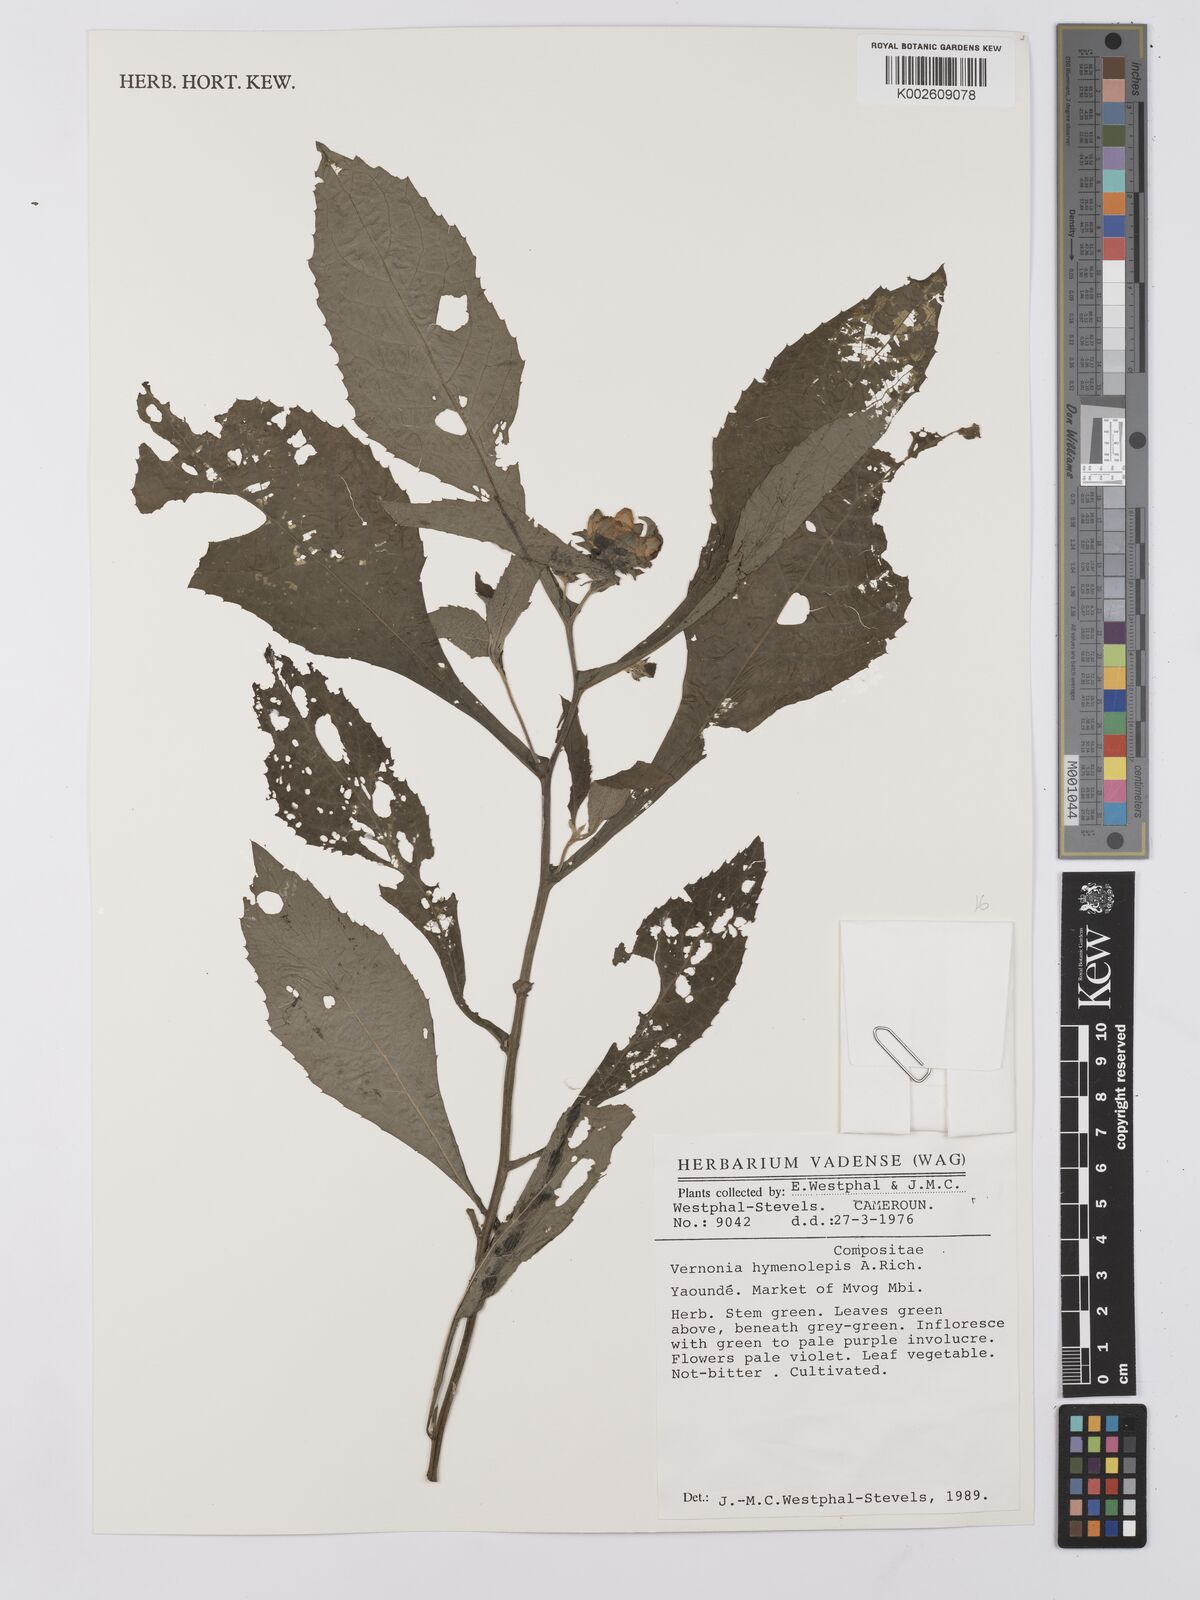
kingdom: Plantae
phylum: Tracheophyta
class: Magnoliopsida
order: Asterales
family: Asteraceae
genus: Baccharoides
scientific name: Baccharoides hymenolepis
